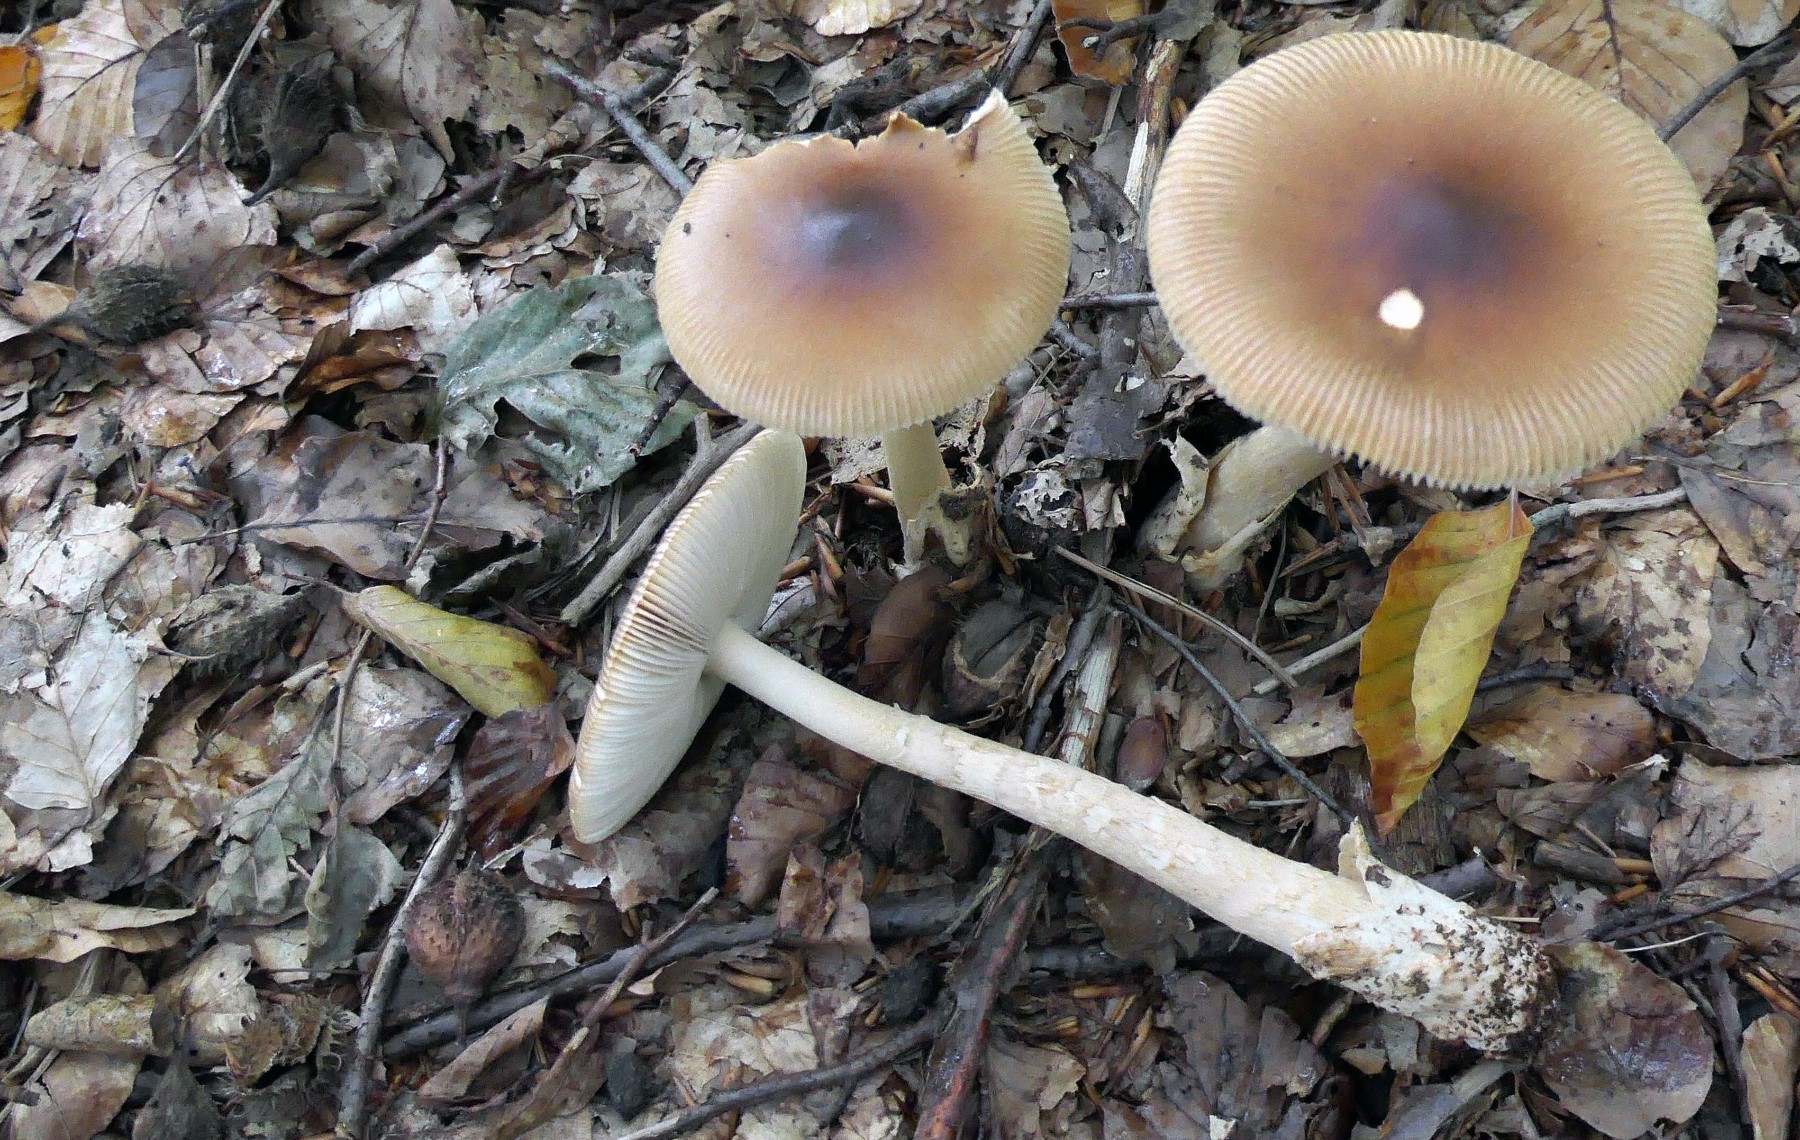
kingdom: Fungi
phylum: Basidiomycota
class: Agaricomycetes
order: Agaricales
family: Amanitaceae
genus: Amanita
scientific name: Amanita fulva
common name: brun kam-fluesvamp
